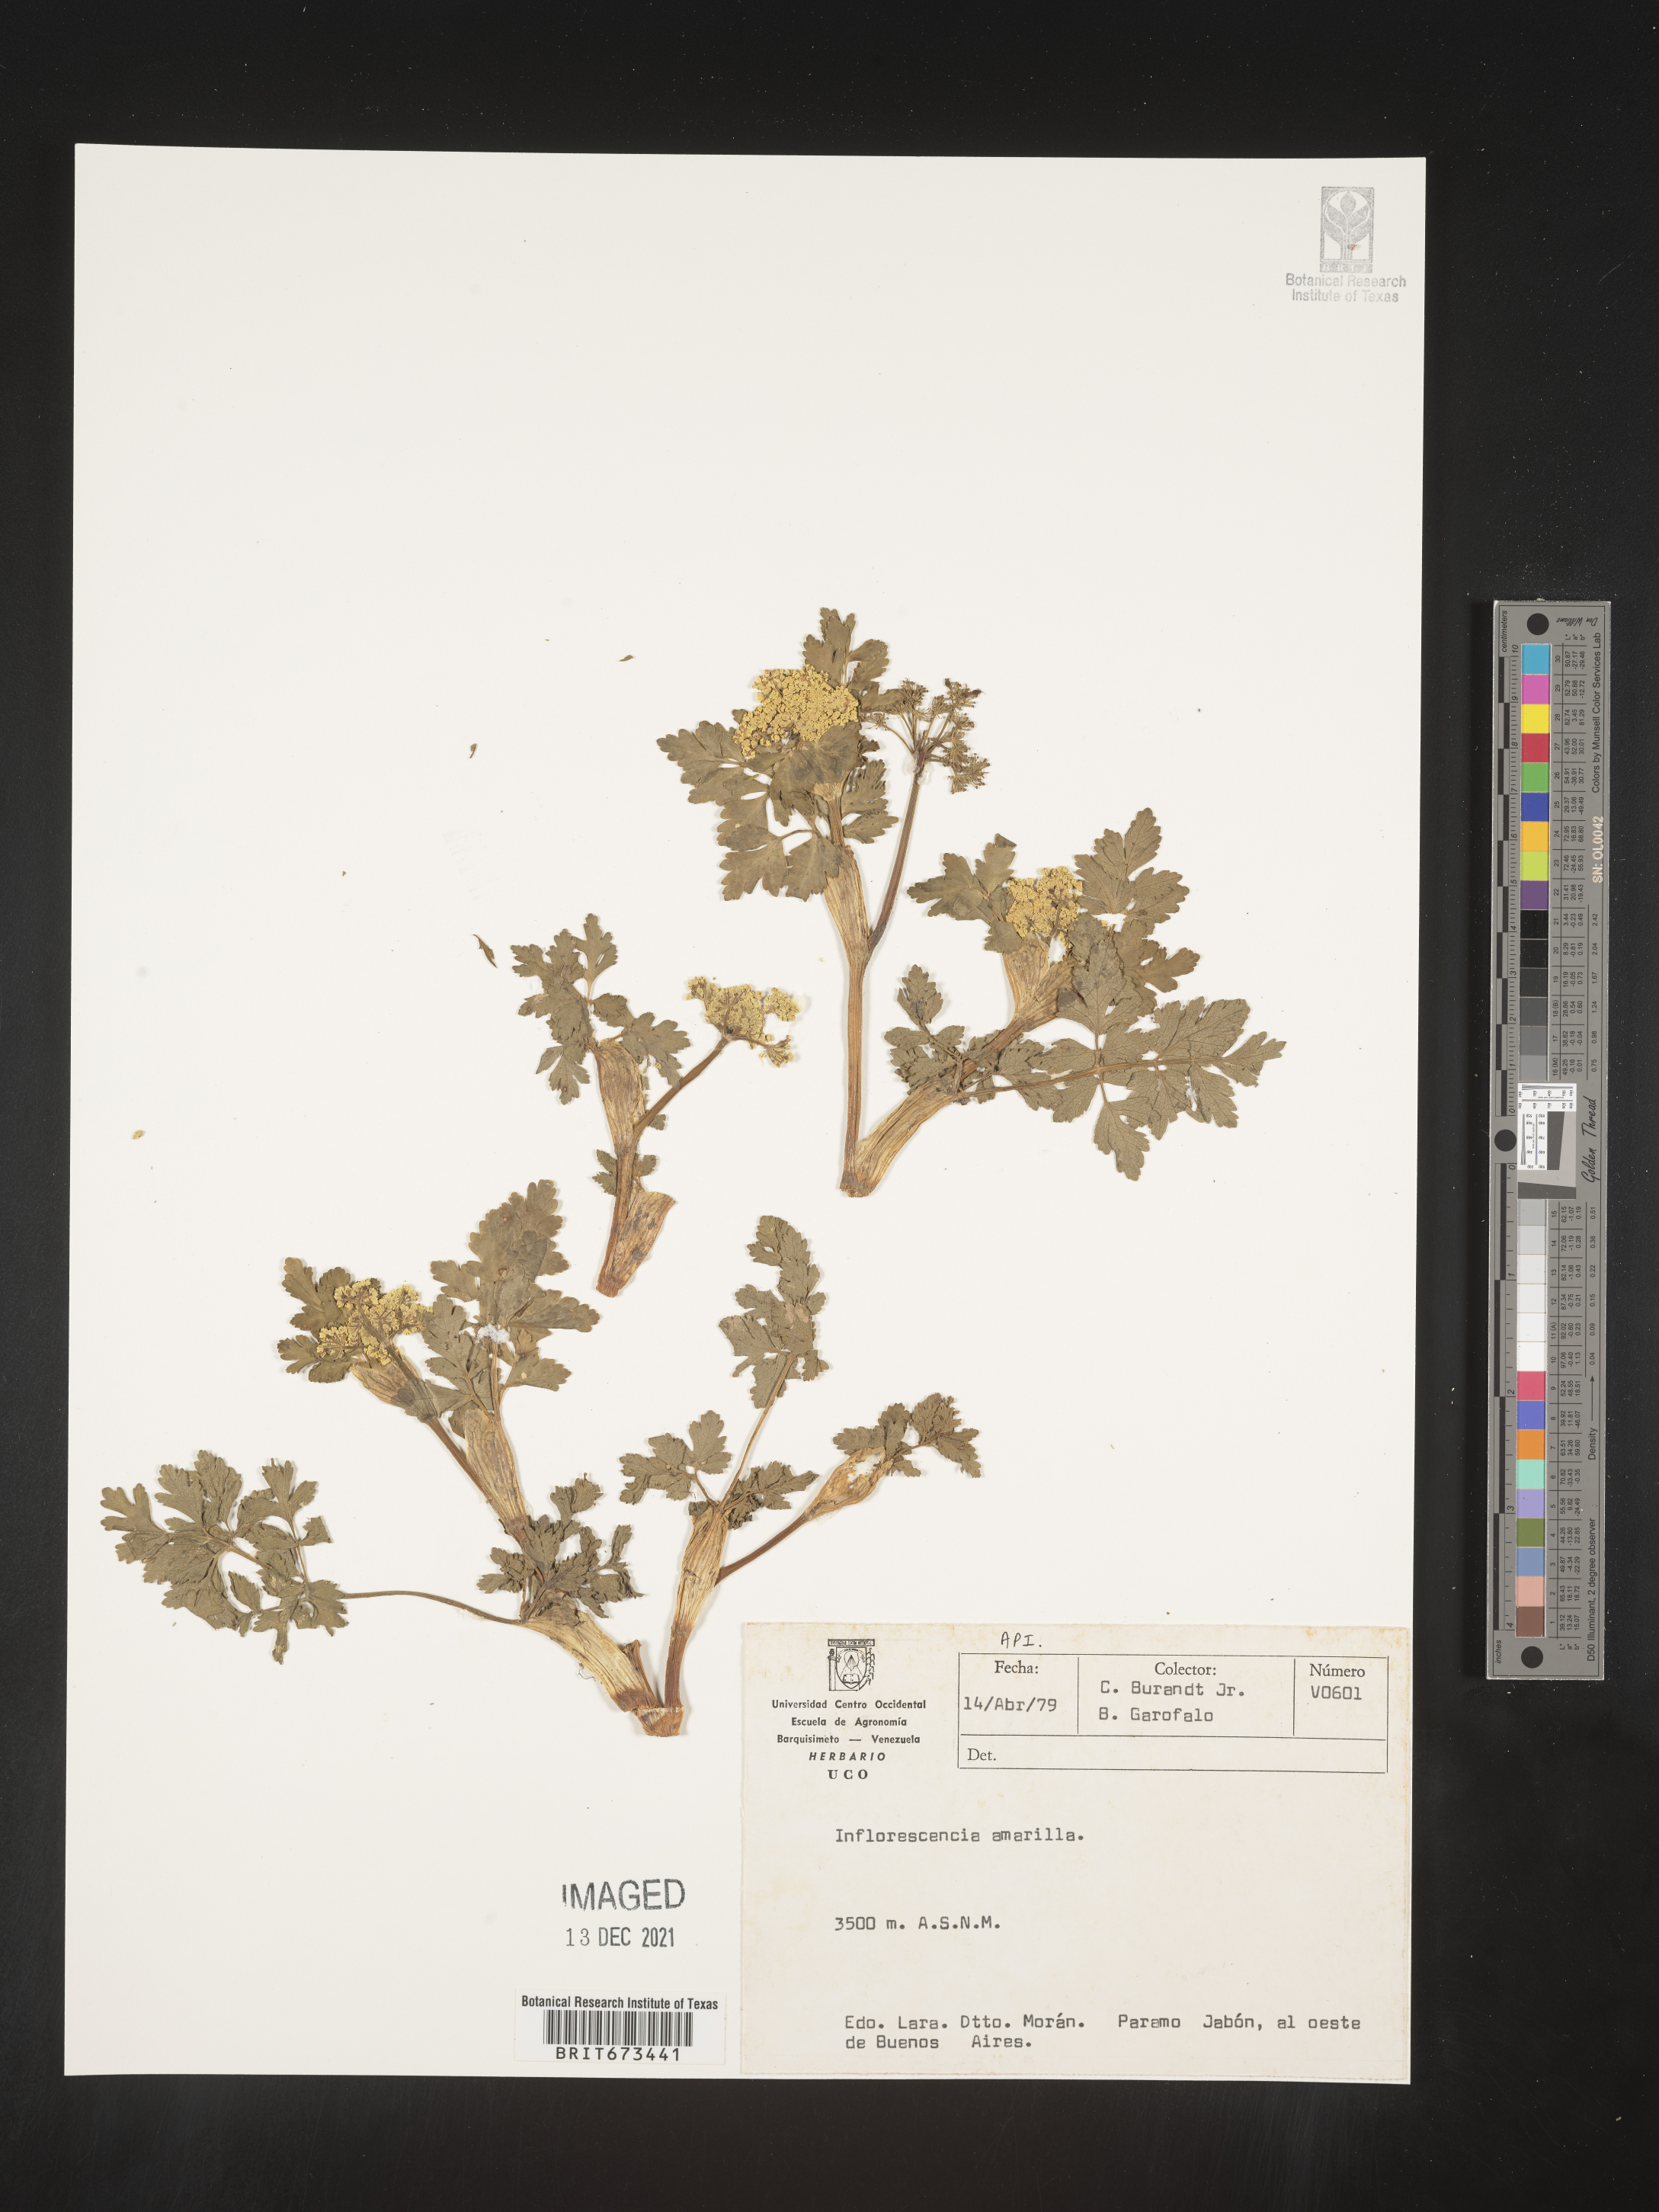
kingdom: Plantae
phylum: Tracheophyta
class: Magnoliopsida
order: Apiales
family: Apiaceae
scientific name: Apiaceae
